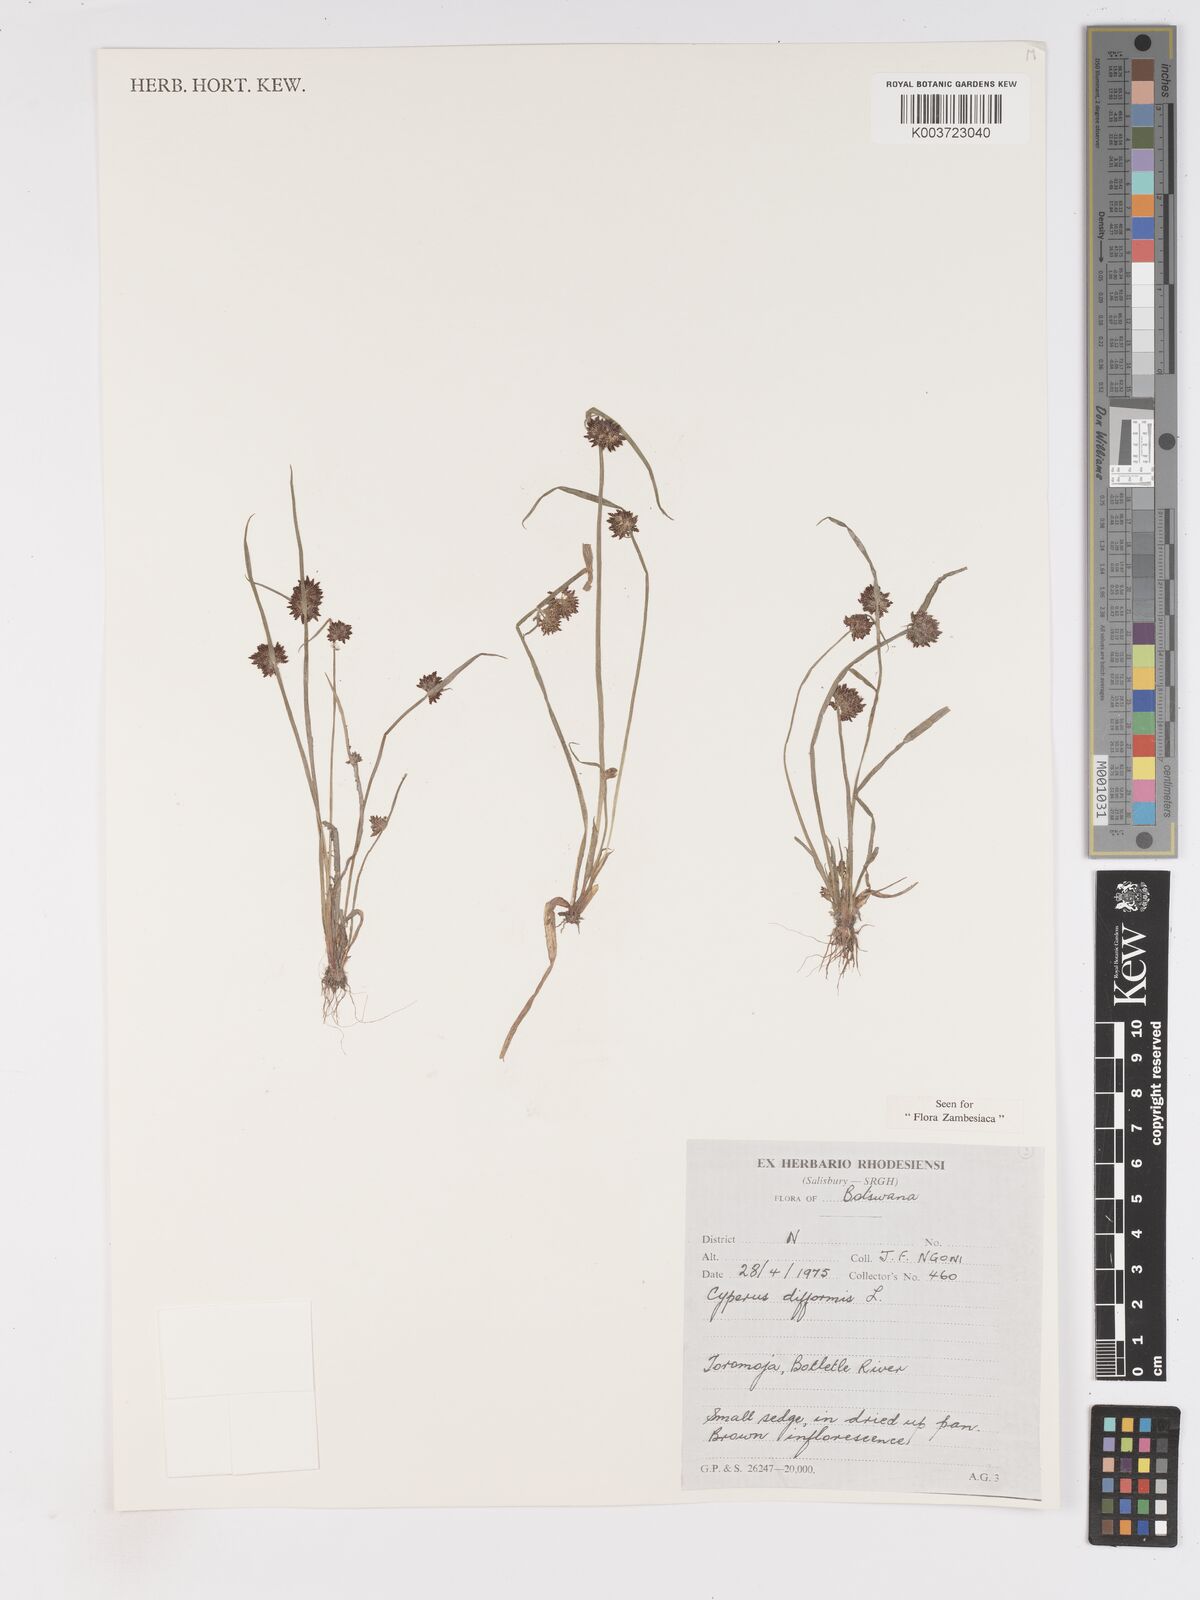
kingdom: Plantae
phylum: Tracheophyta
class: Liliopsida
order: Poales
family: Cyperaceae
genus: Cyperus
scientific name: Cyperus difformis
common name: Variable flatsedge
